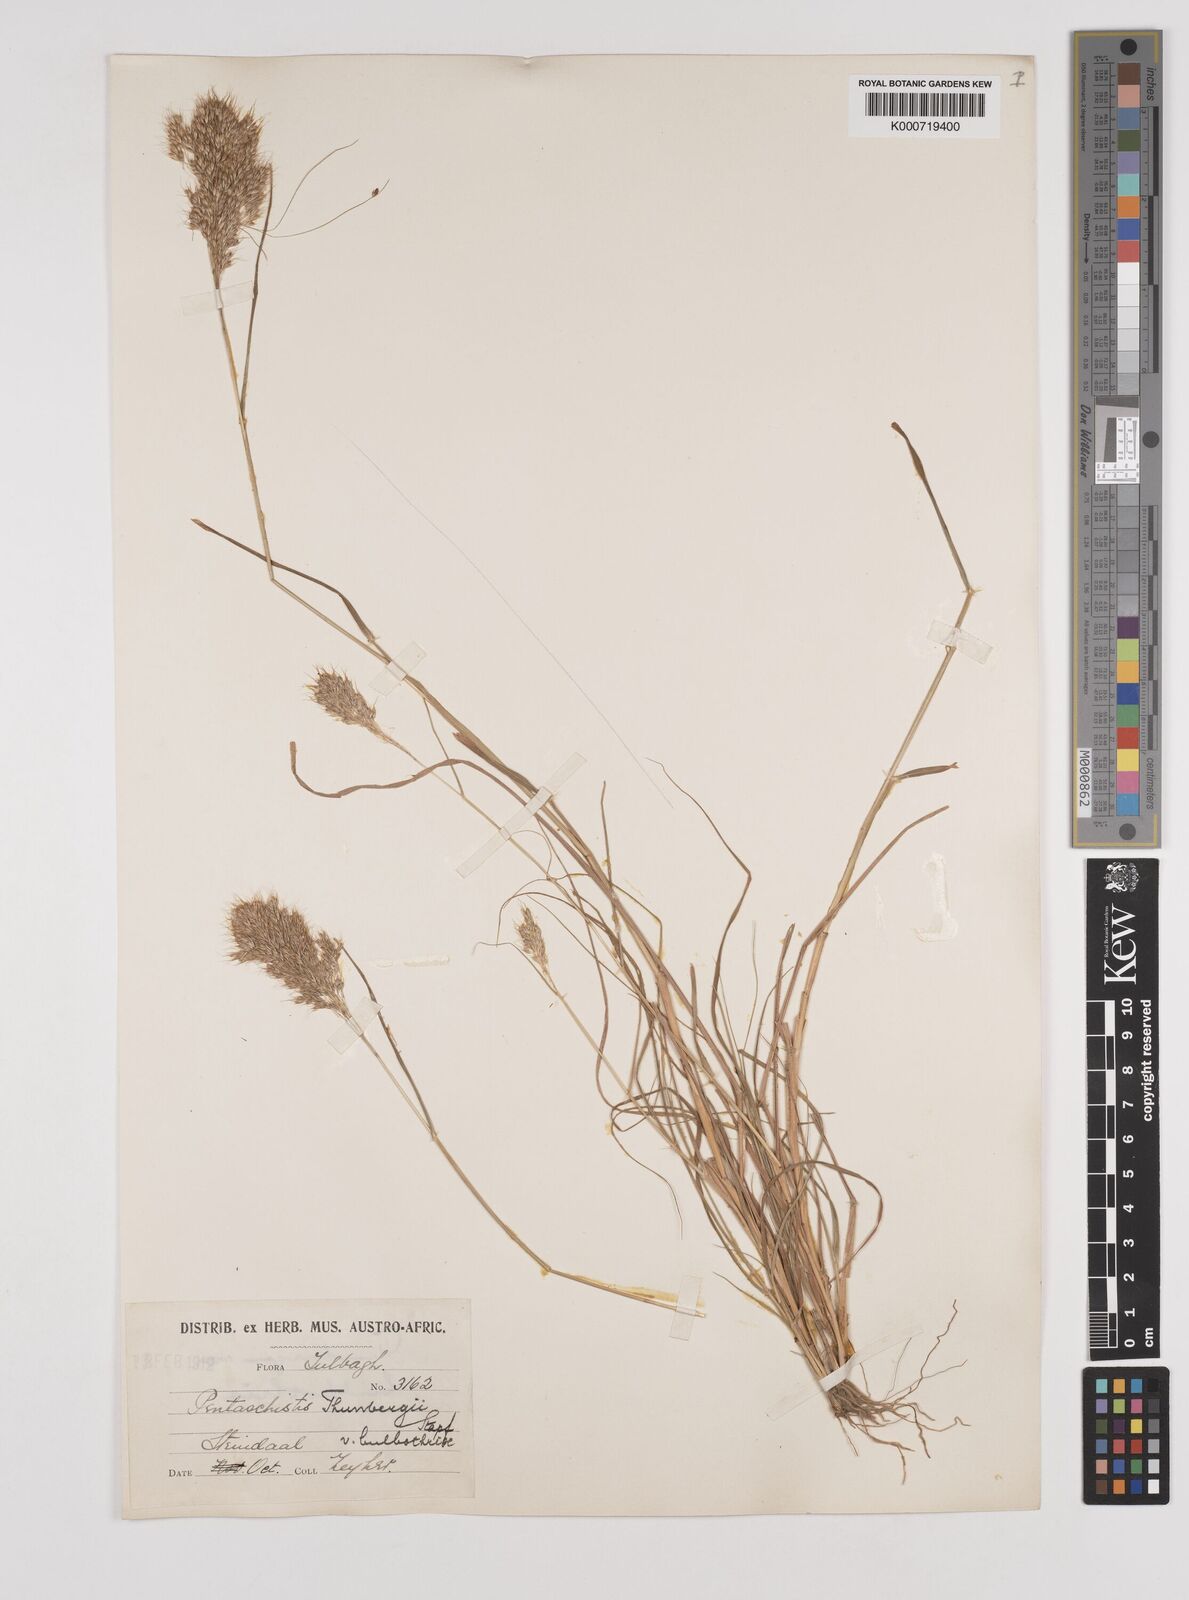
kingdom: Plantae
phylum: Tracheophyta
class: Liliopsida
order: Poales
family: Poaceae
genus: Pentameris
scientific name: Pentameris triseta
